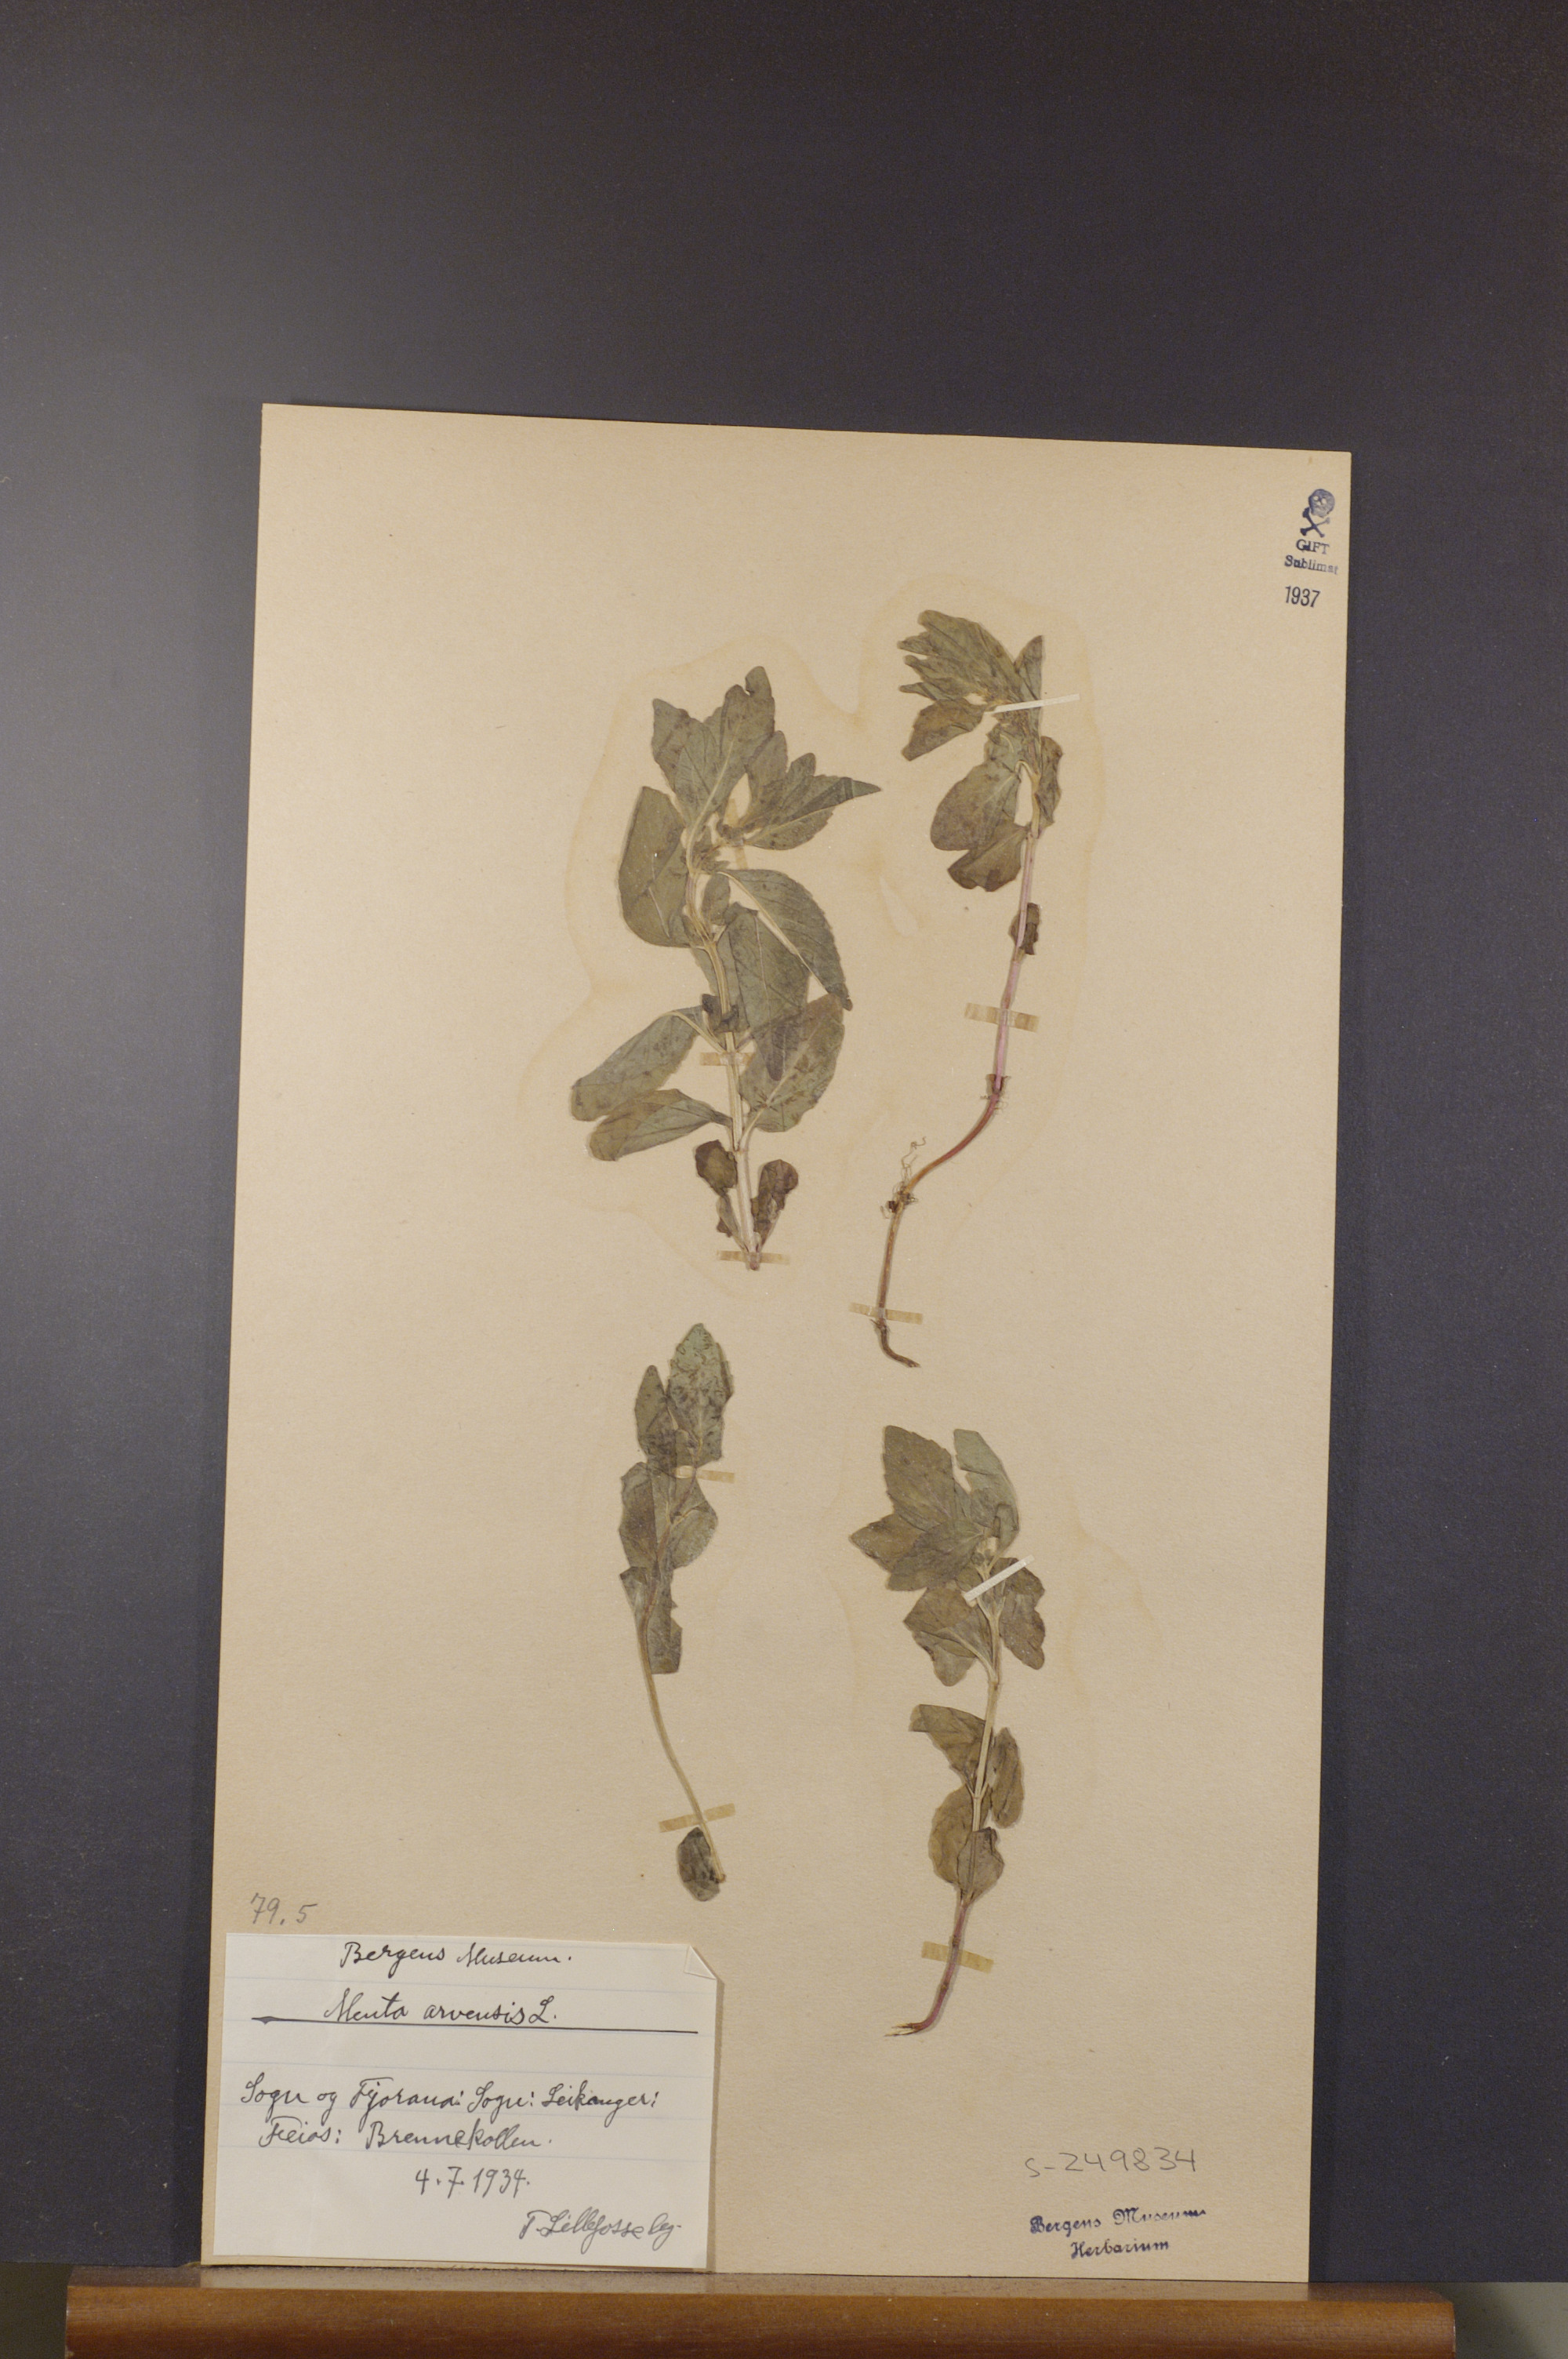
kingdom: Plantae
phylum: Tracheophyta
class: Magnoliopsida
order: Lamiales
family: Lamiaceae
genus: Mentha
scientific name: Mentha arvensis
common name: Corn mint
